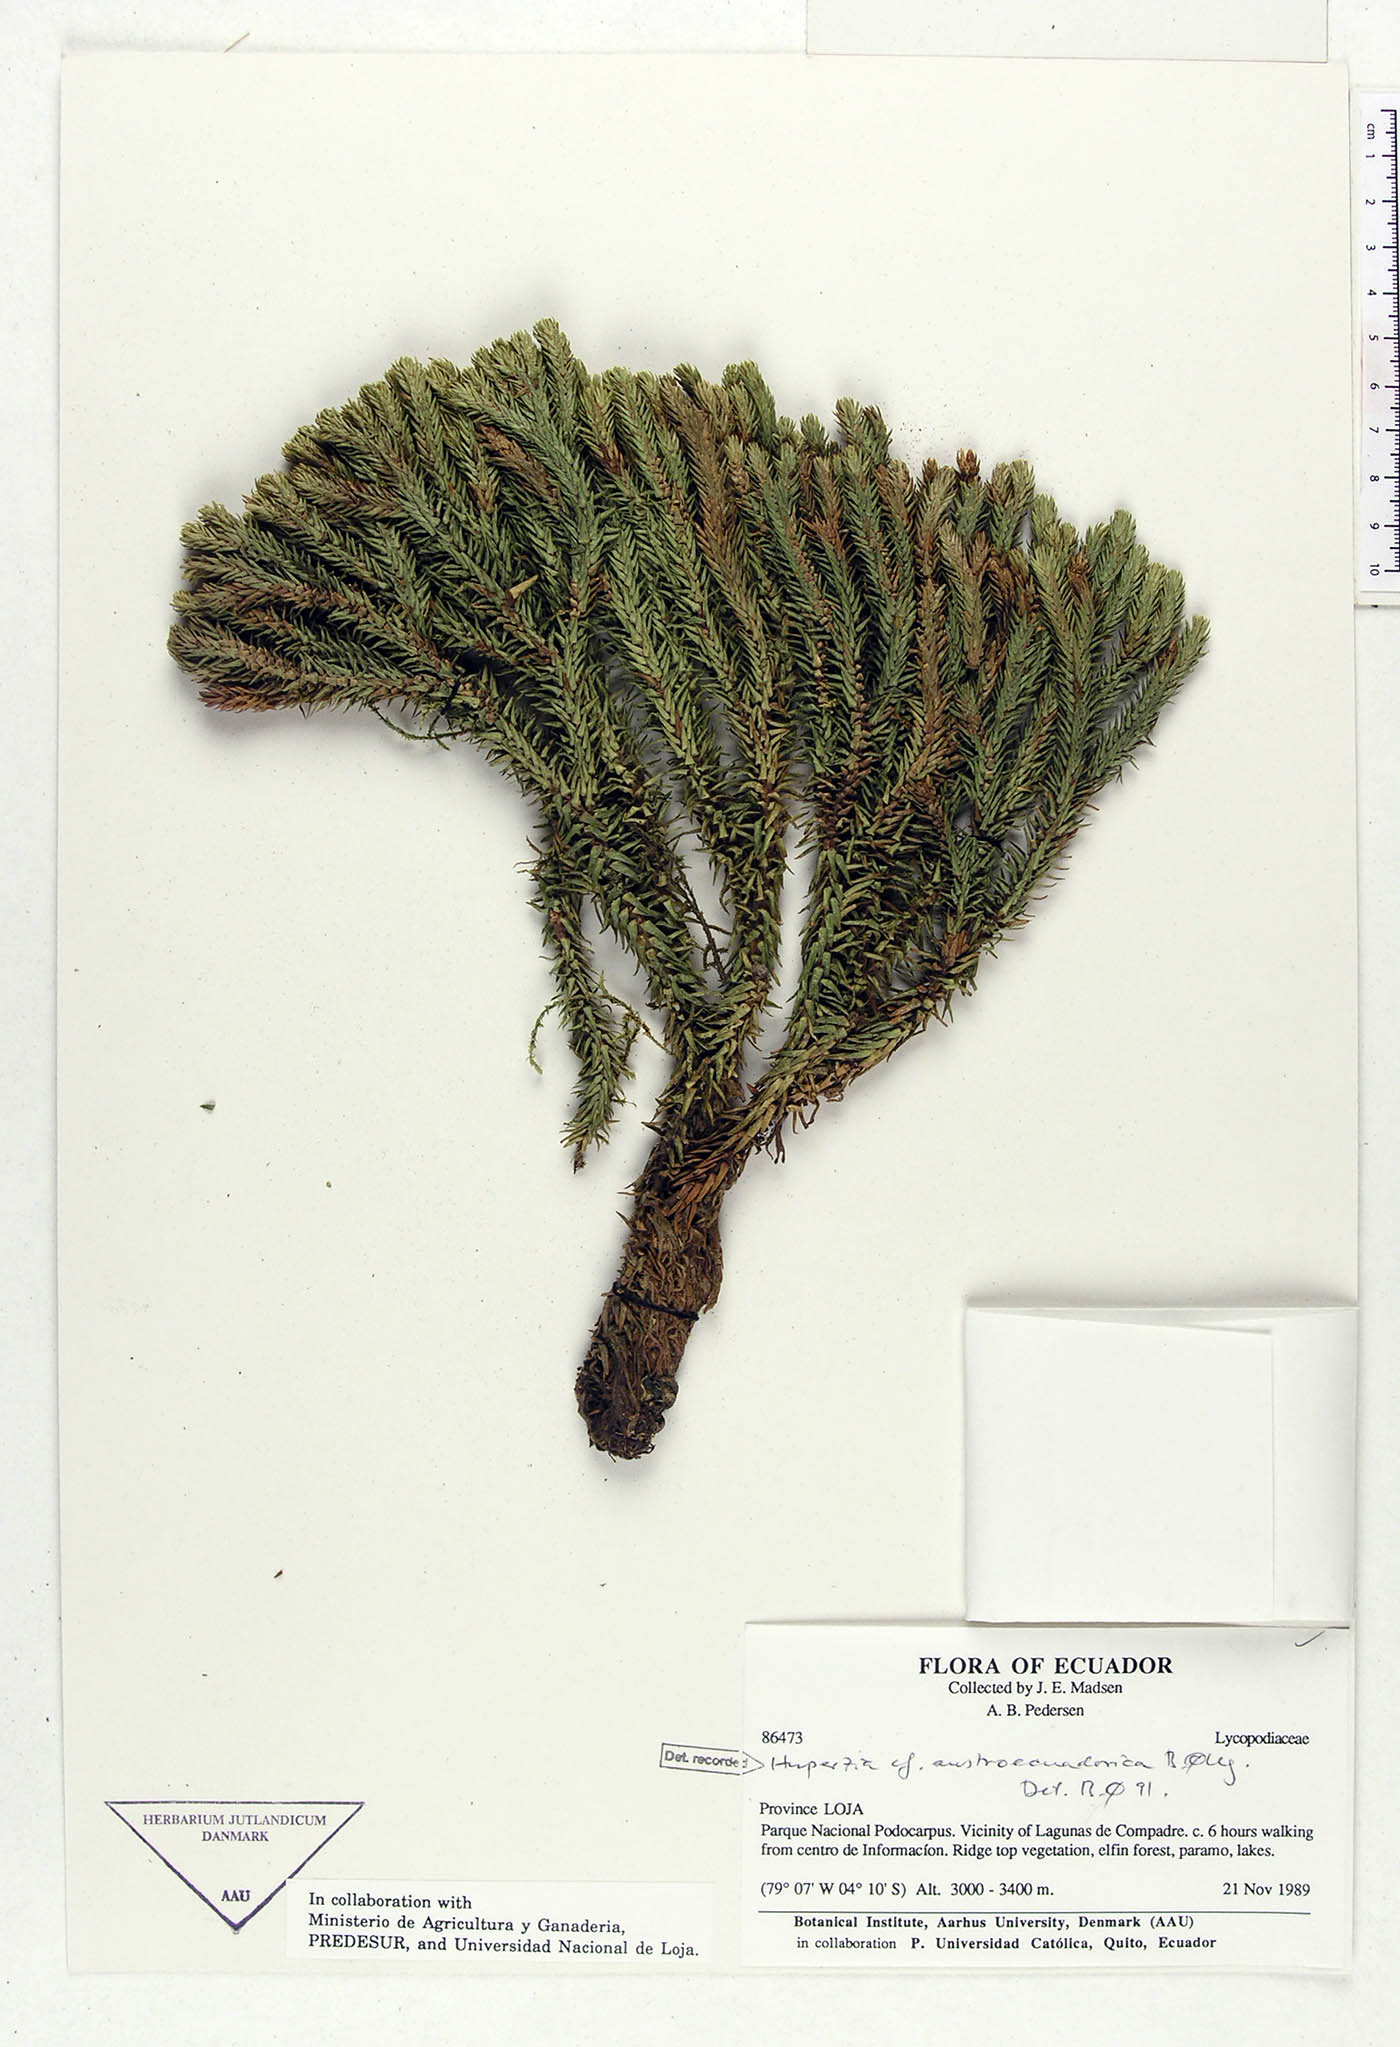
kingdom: Plantae
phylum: Tracheophyta
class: Lycopodiopsida
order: Lycopodiales
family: Lycopodiaceae
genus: Phlegmariurus
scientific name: Phlegmariurus austroecuadoricus
